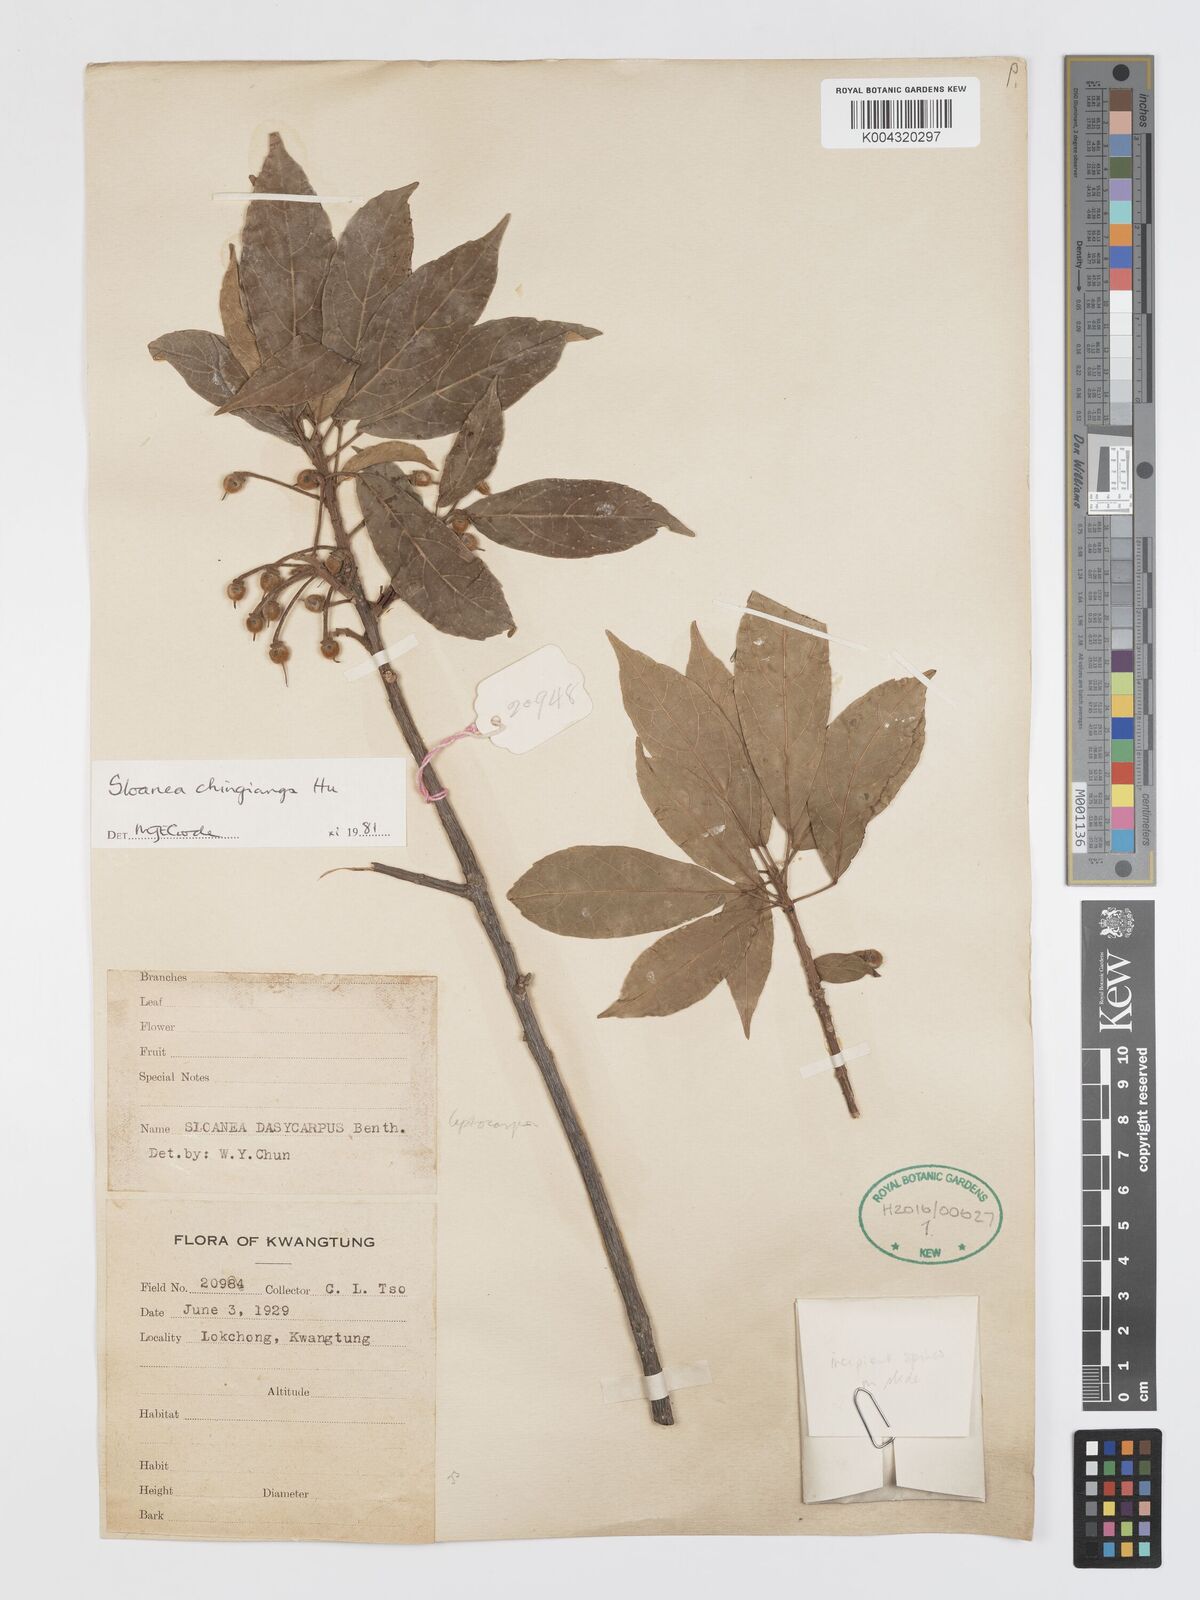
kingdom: Plantae
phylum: Tracheophyta
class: Magnoliopsida
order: Oxalidales
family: Elaeocarpaceae
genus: Sloanea
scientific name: Sloanea chingiana
